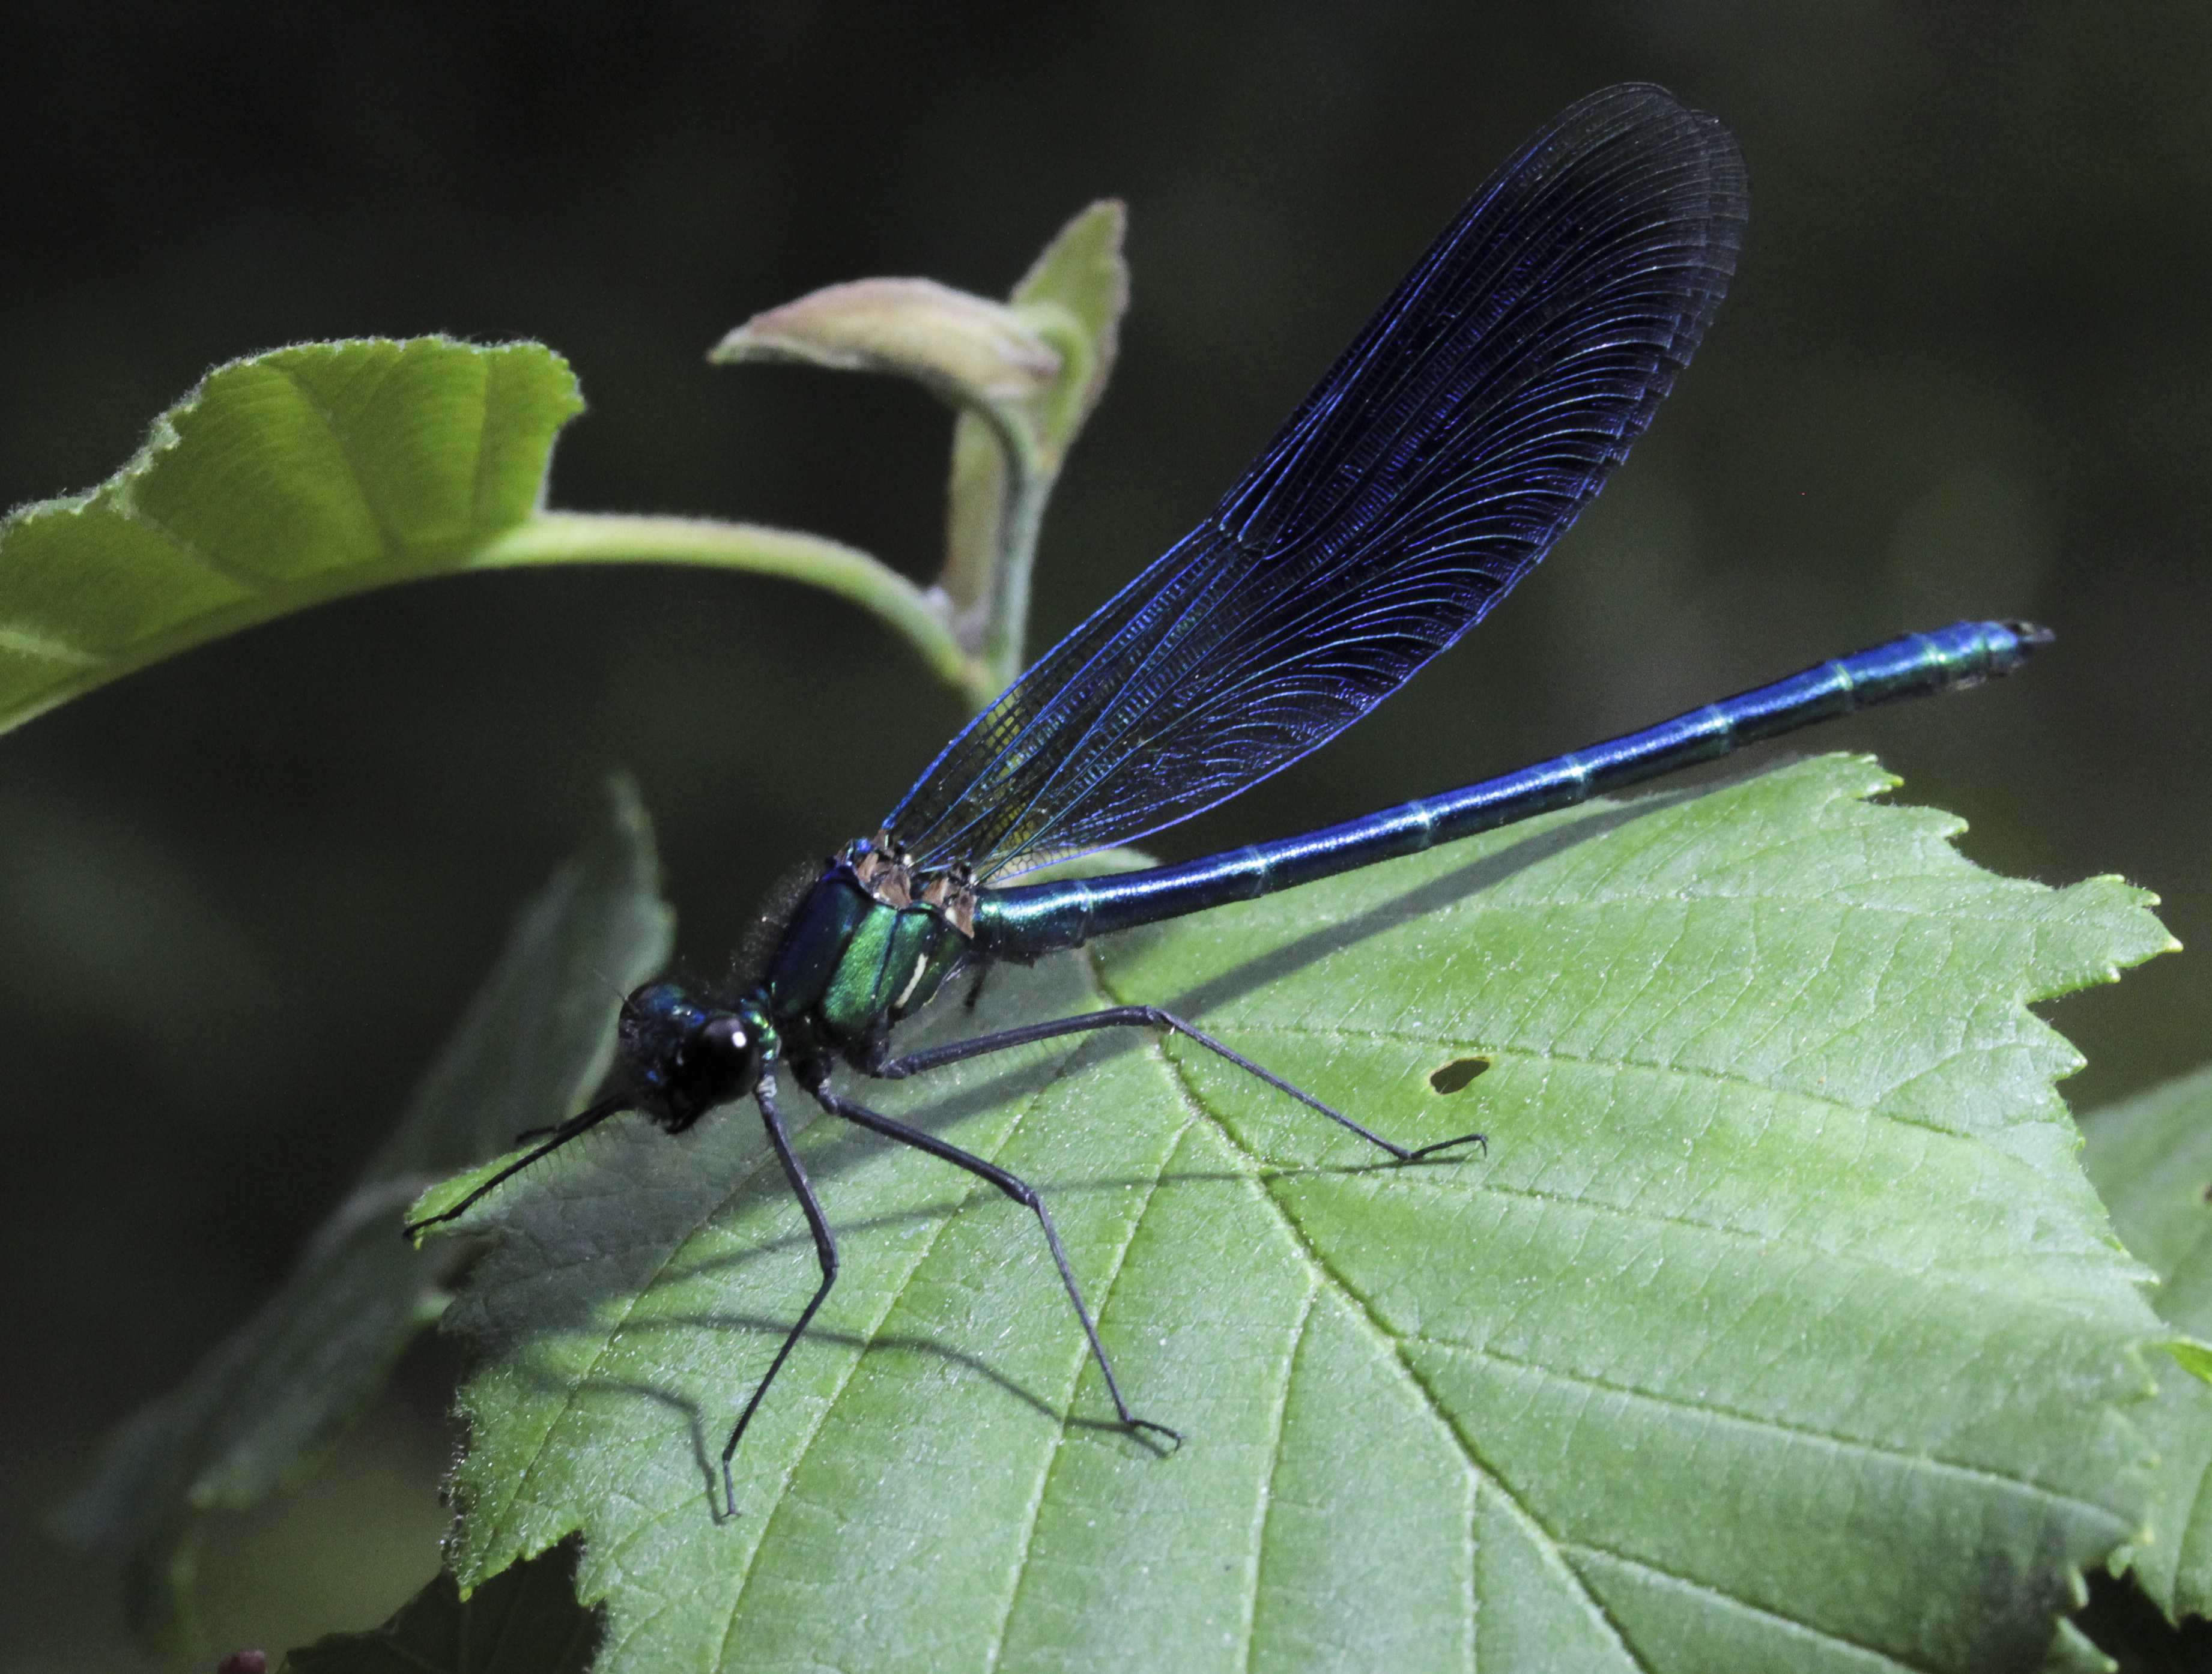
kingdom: Animalia
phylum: Arthropoda
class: Insecta
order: Odonata
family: Calopterygidae
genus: Calopteryx
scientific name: Calopteryx splendens
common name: Banded demoiselle
